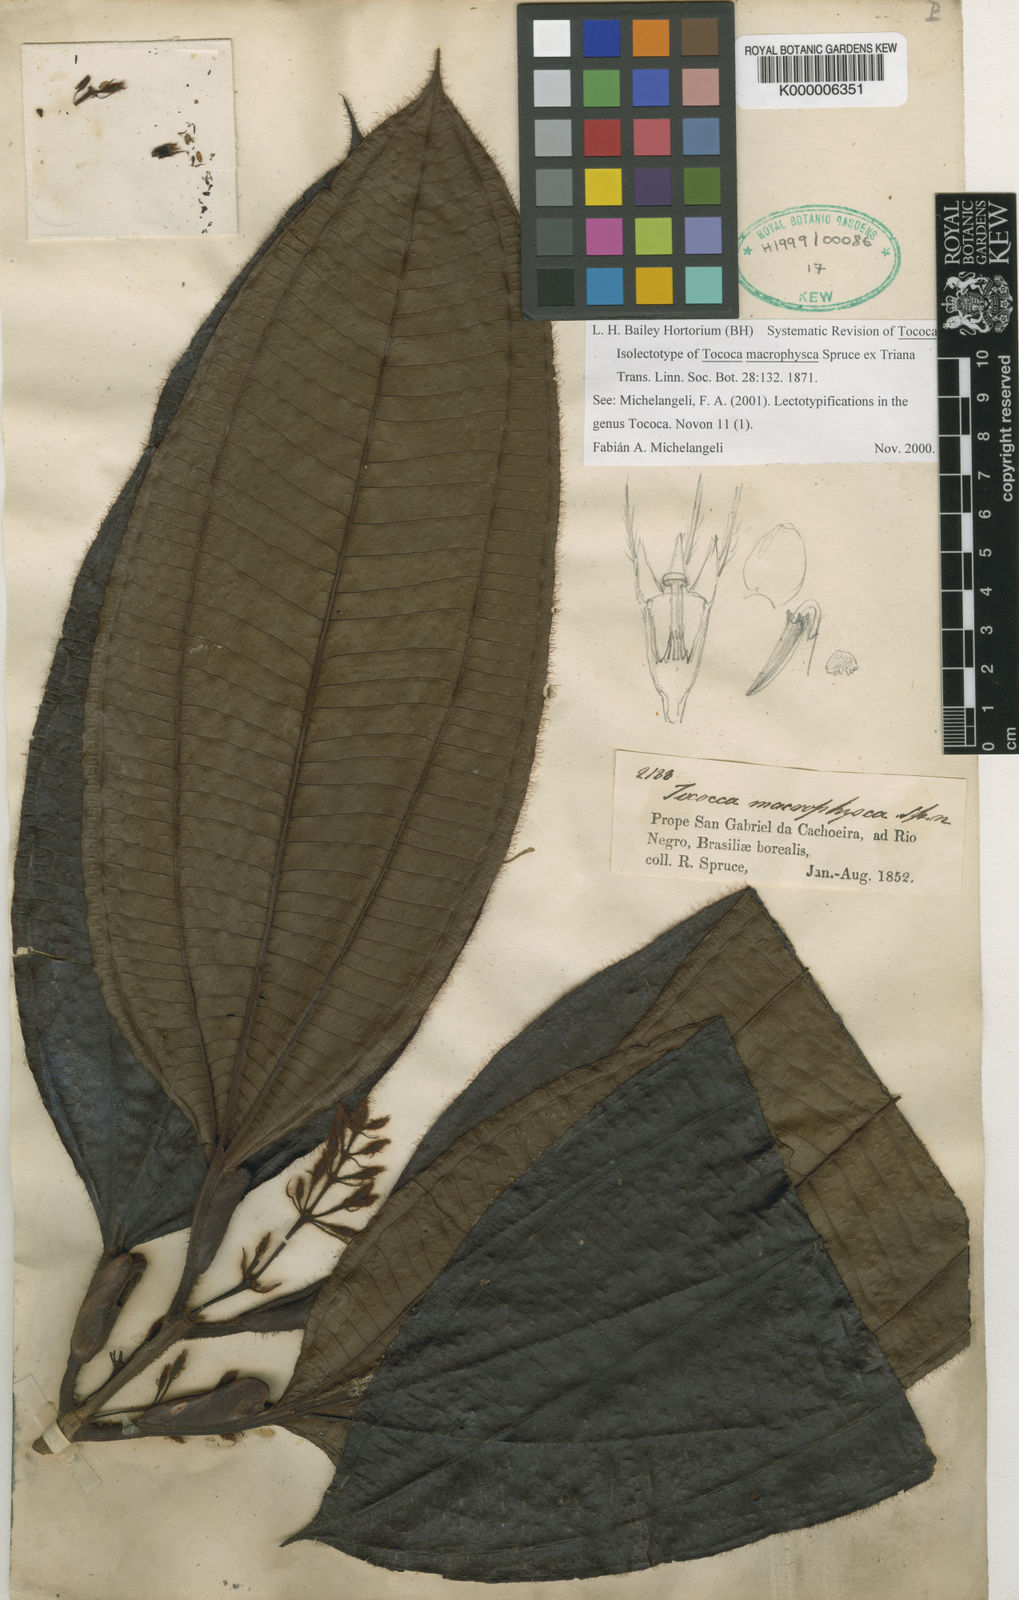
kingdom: Plantae
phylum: Tracheophyta
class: Magnoliopsida
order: Myrtales
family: Melastomataceae
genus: Miconia
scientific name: Miconia macrophysca
